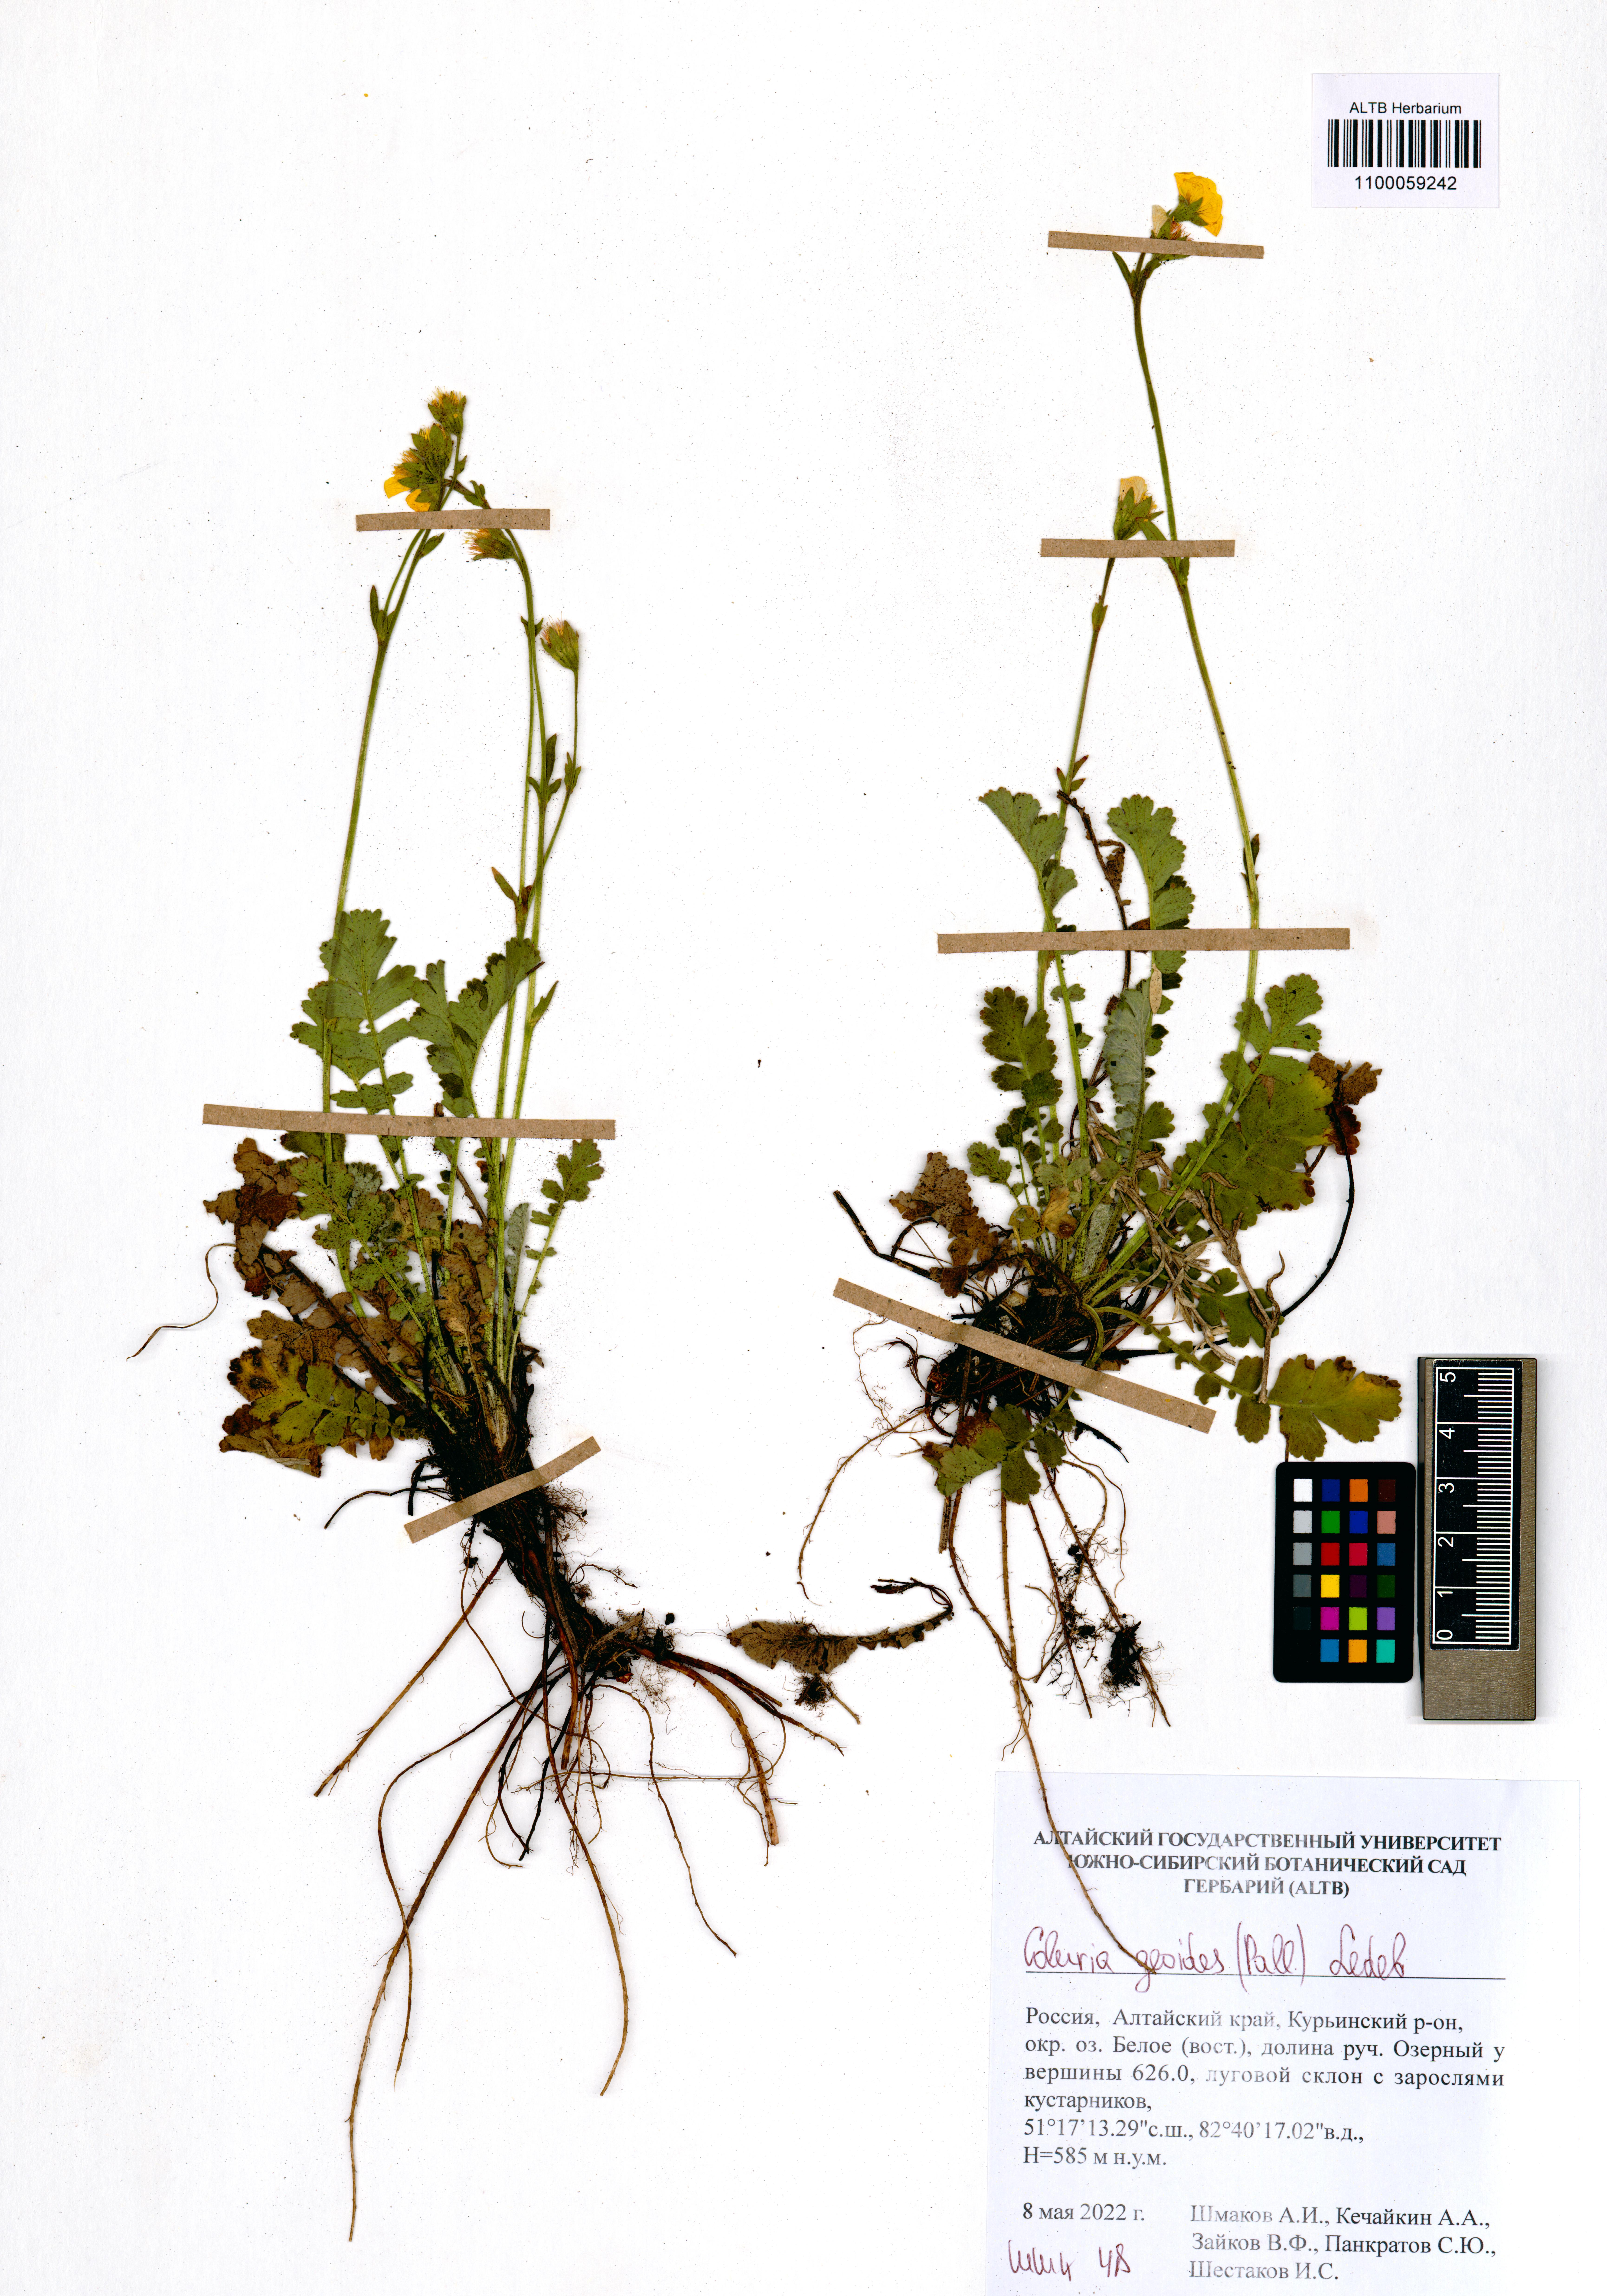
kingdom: Plantae
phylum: Tracheophyta
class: Magnoliopsida
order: Rosales
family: Rosaceae
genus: Geum
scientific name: Geum geoides
